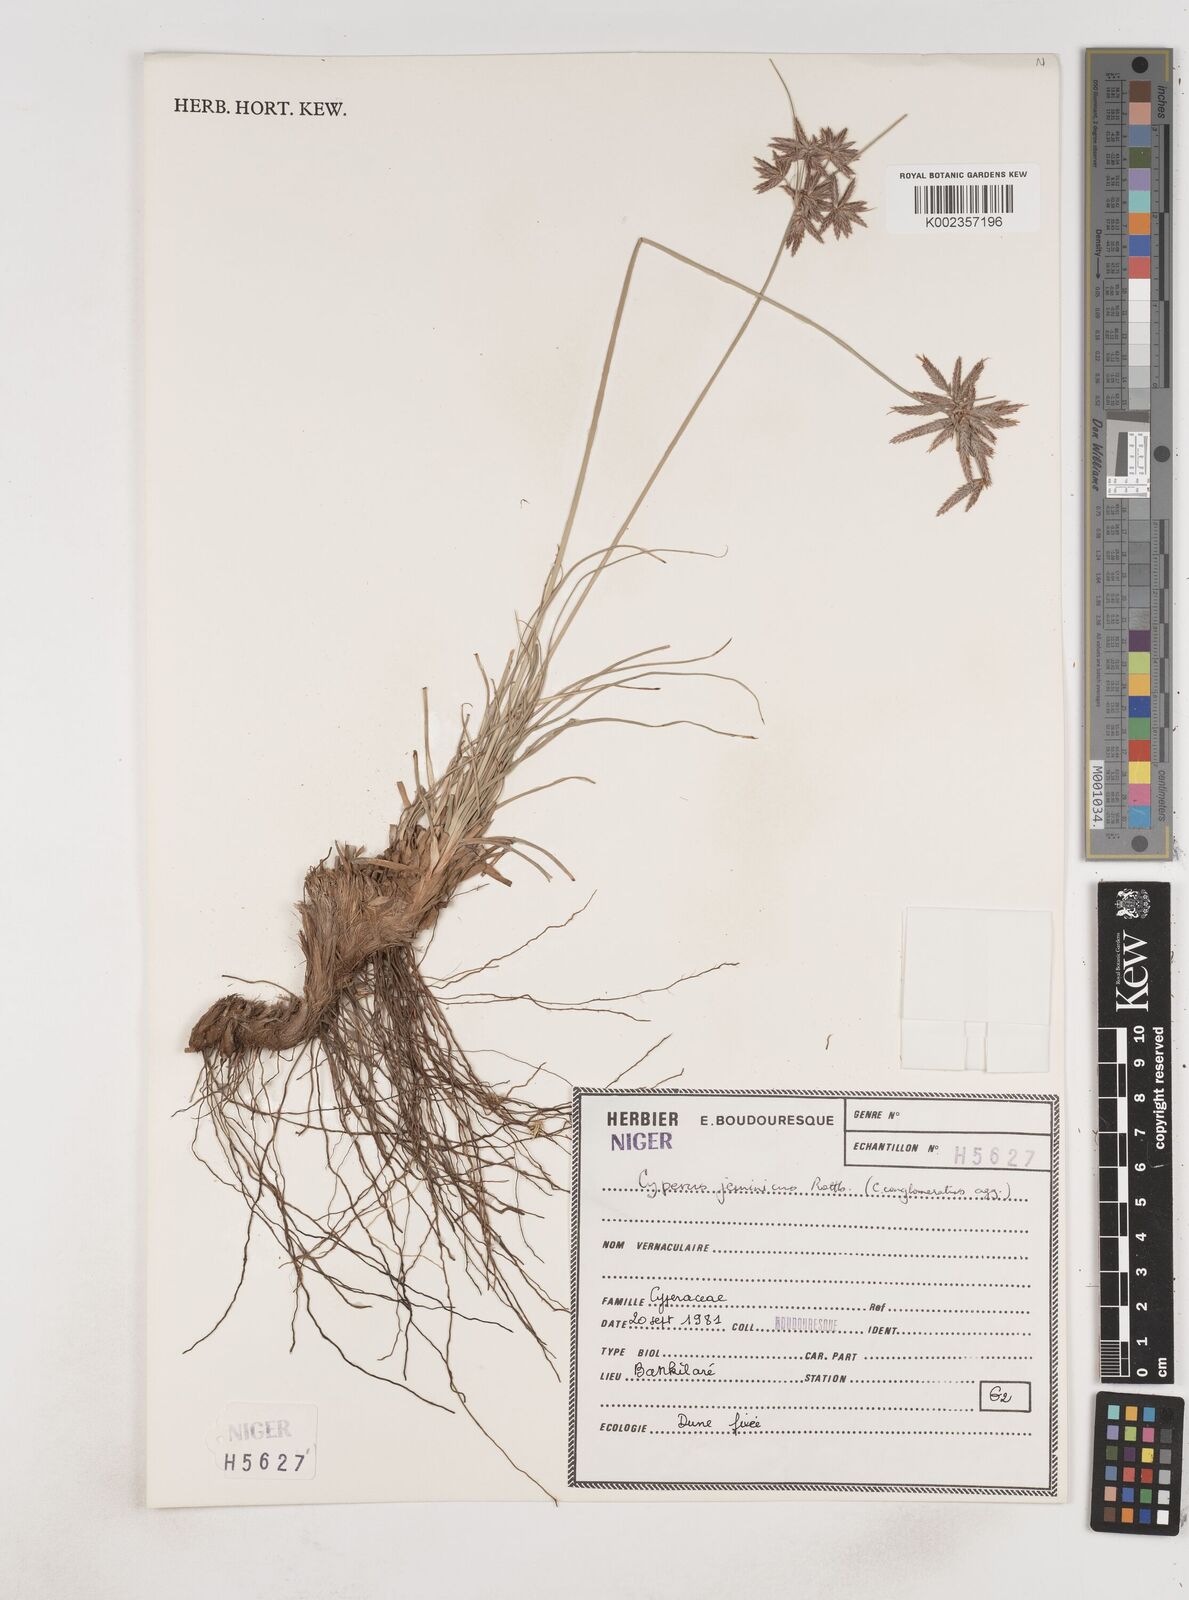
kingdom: Plantae
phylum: Tracheophyta
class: Liliopsida
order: Poales
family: Cyperaceae
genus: Cyperus
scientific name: Cyperus jeminicus
